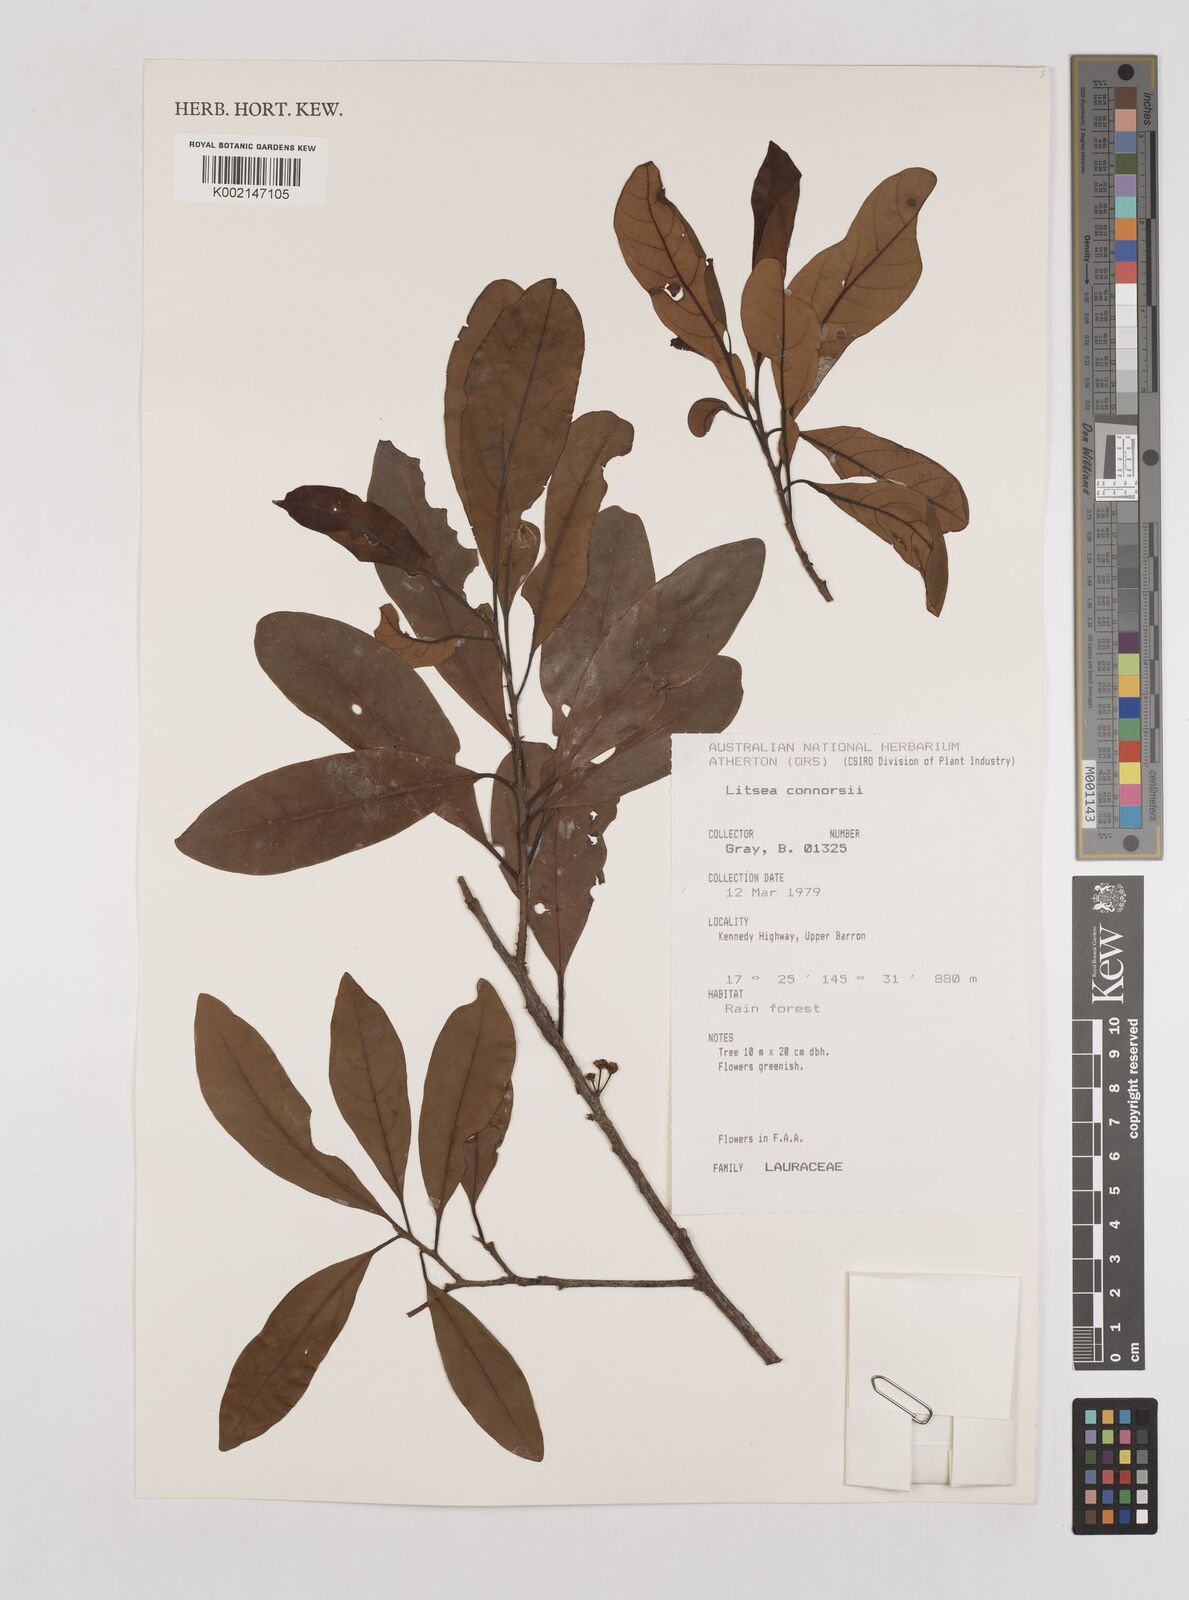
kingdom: Plantae
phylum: Tracheophyta
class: Magnoliopsida
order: Laurales
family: Lauraceae
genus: Litsea
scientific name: Litsea connorsii
